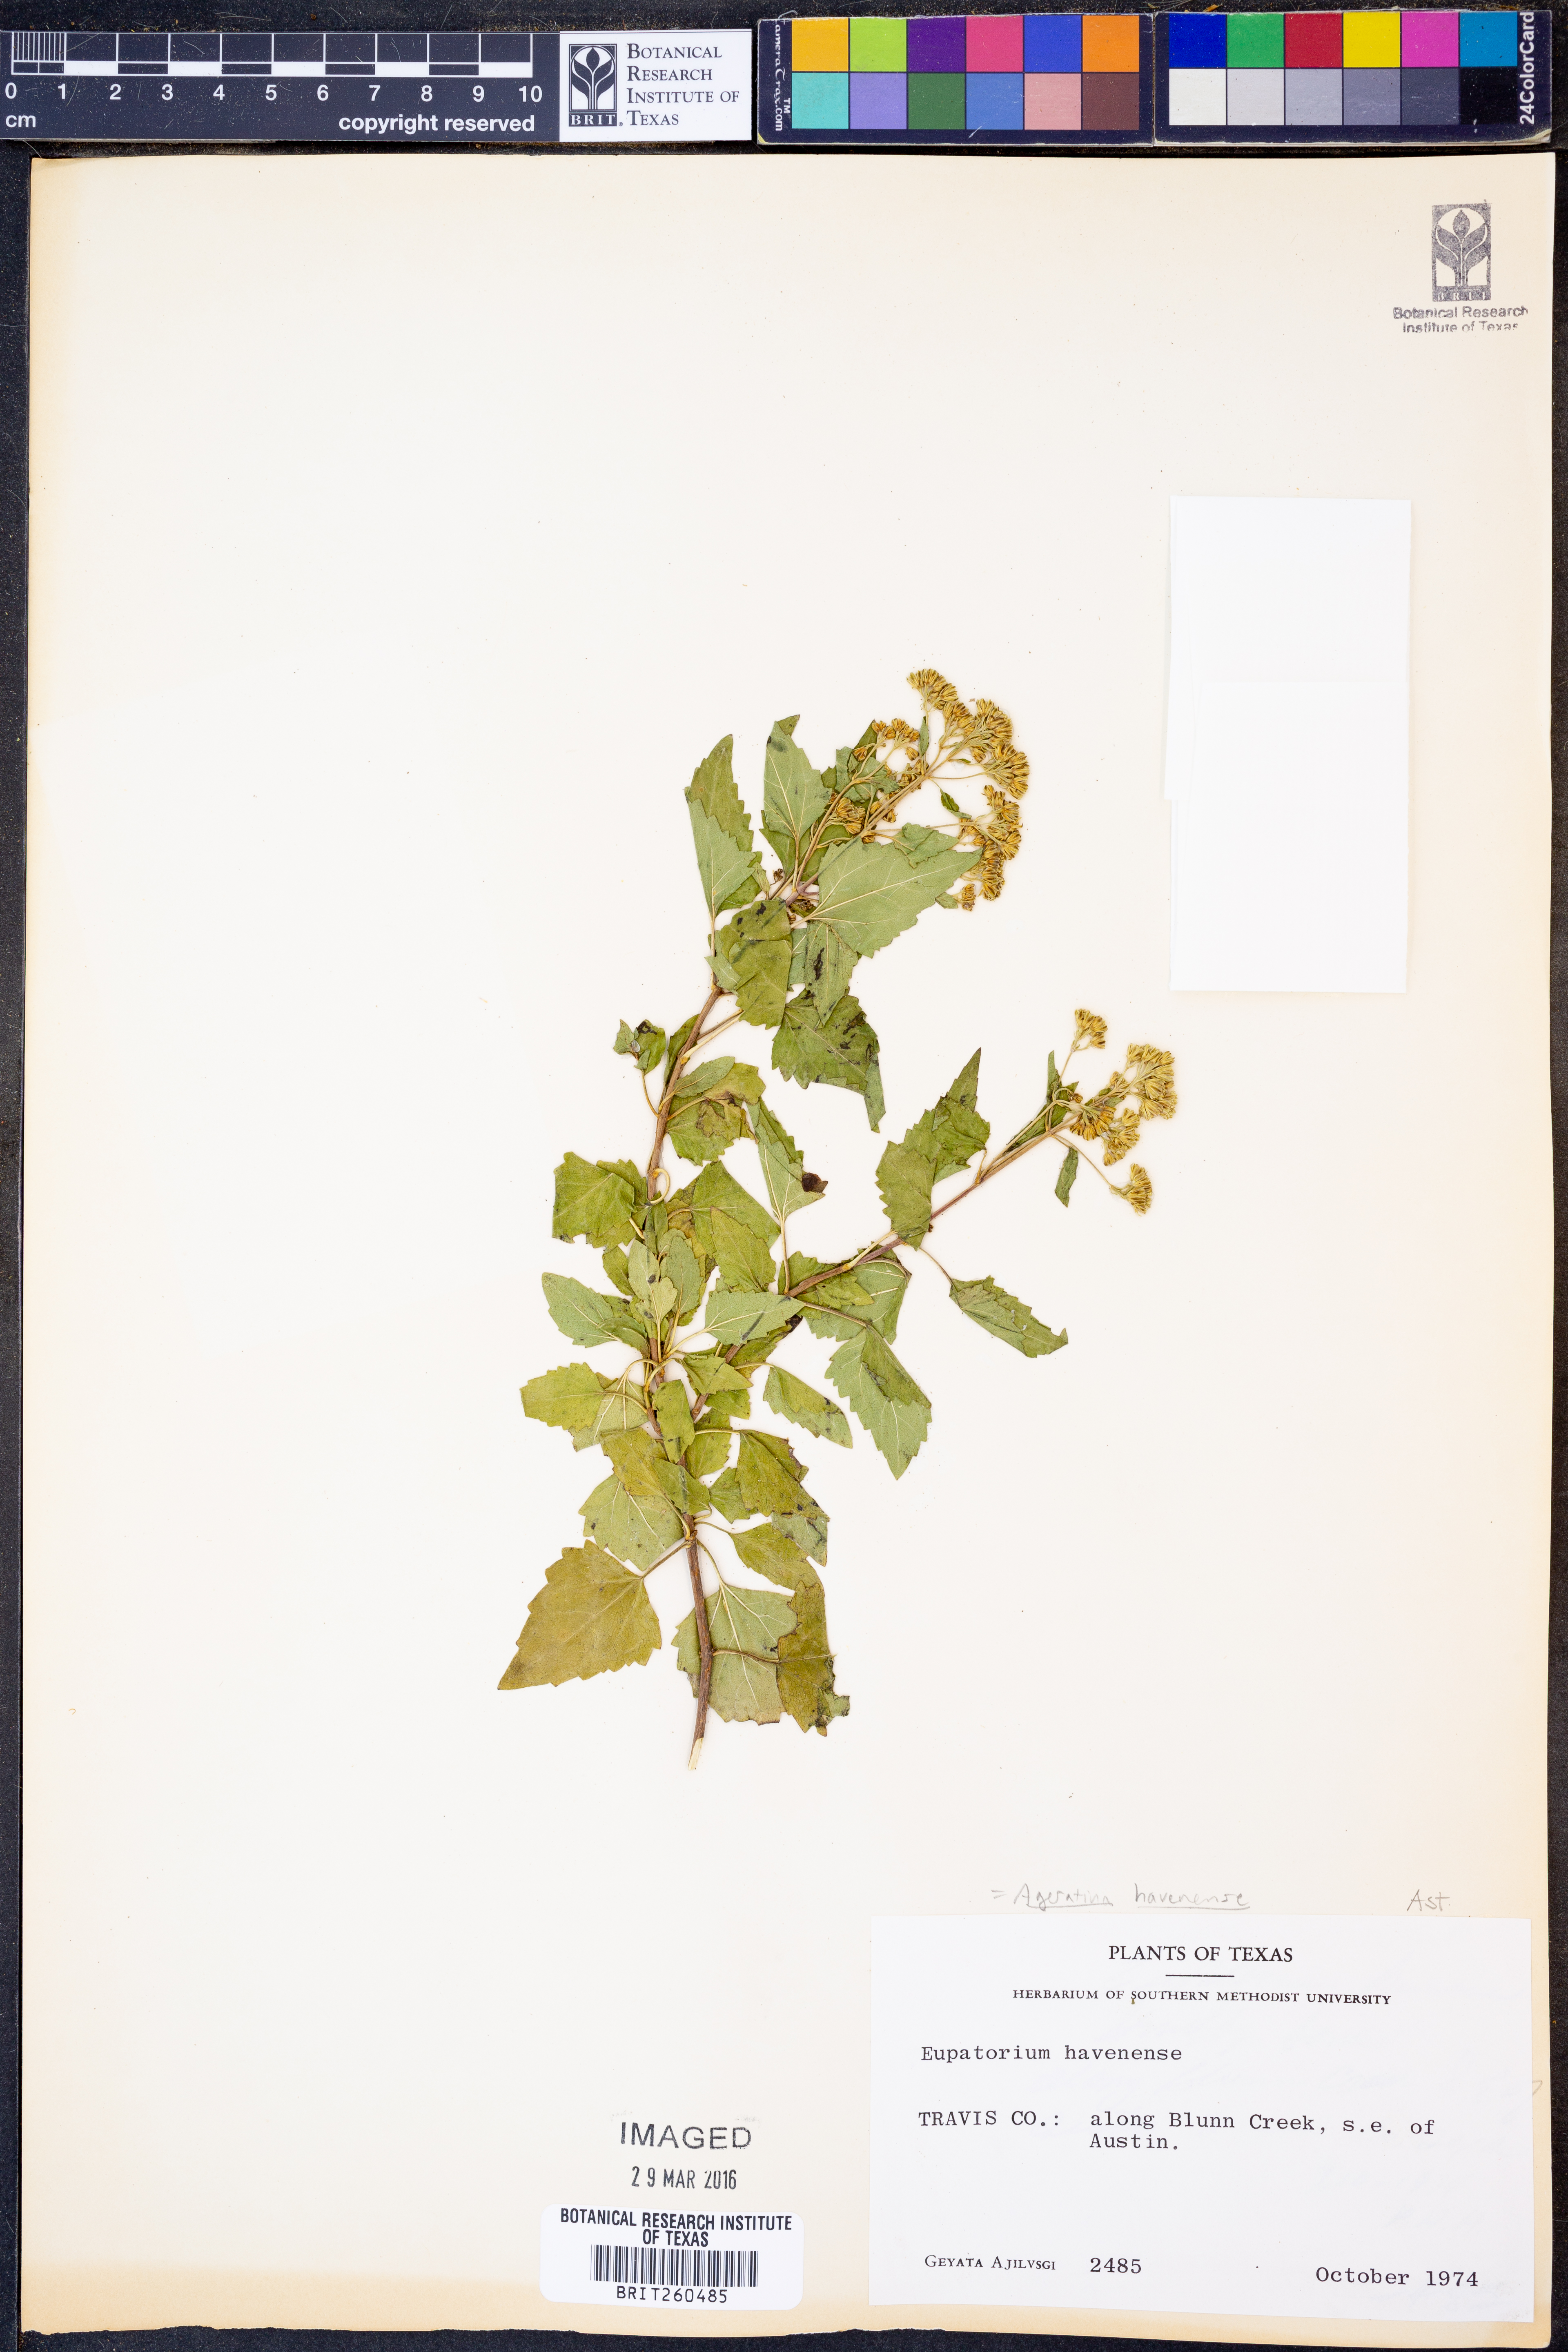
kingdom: Plantae
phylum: Tracheophyta
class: Magnoliopsida
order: Asterales
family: Asteraceae
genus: Ageratina
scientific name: Ageratina havanensis
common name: Havana snakeroot
